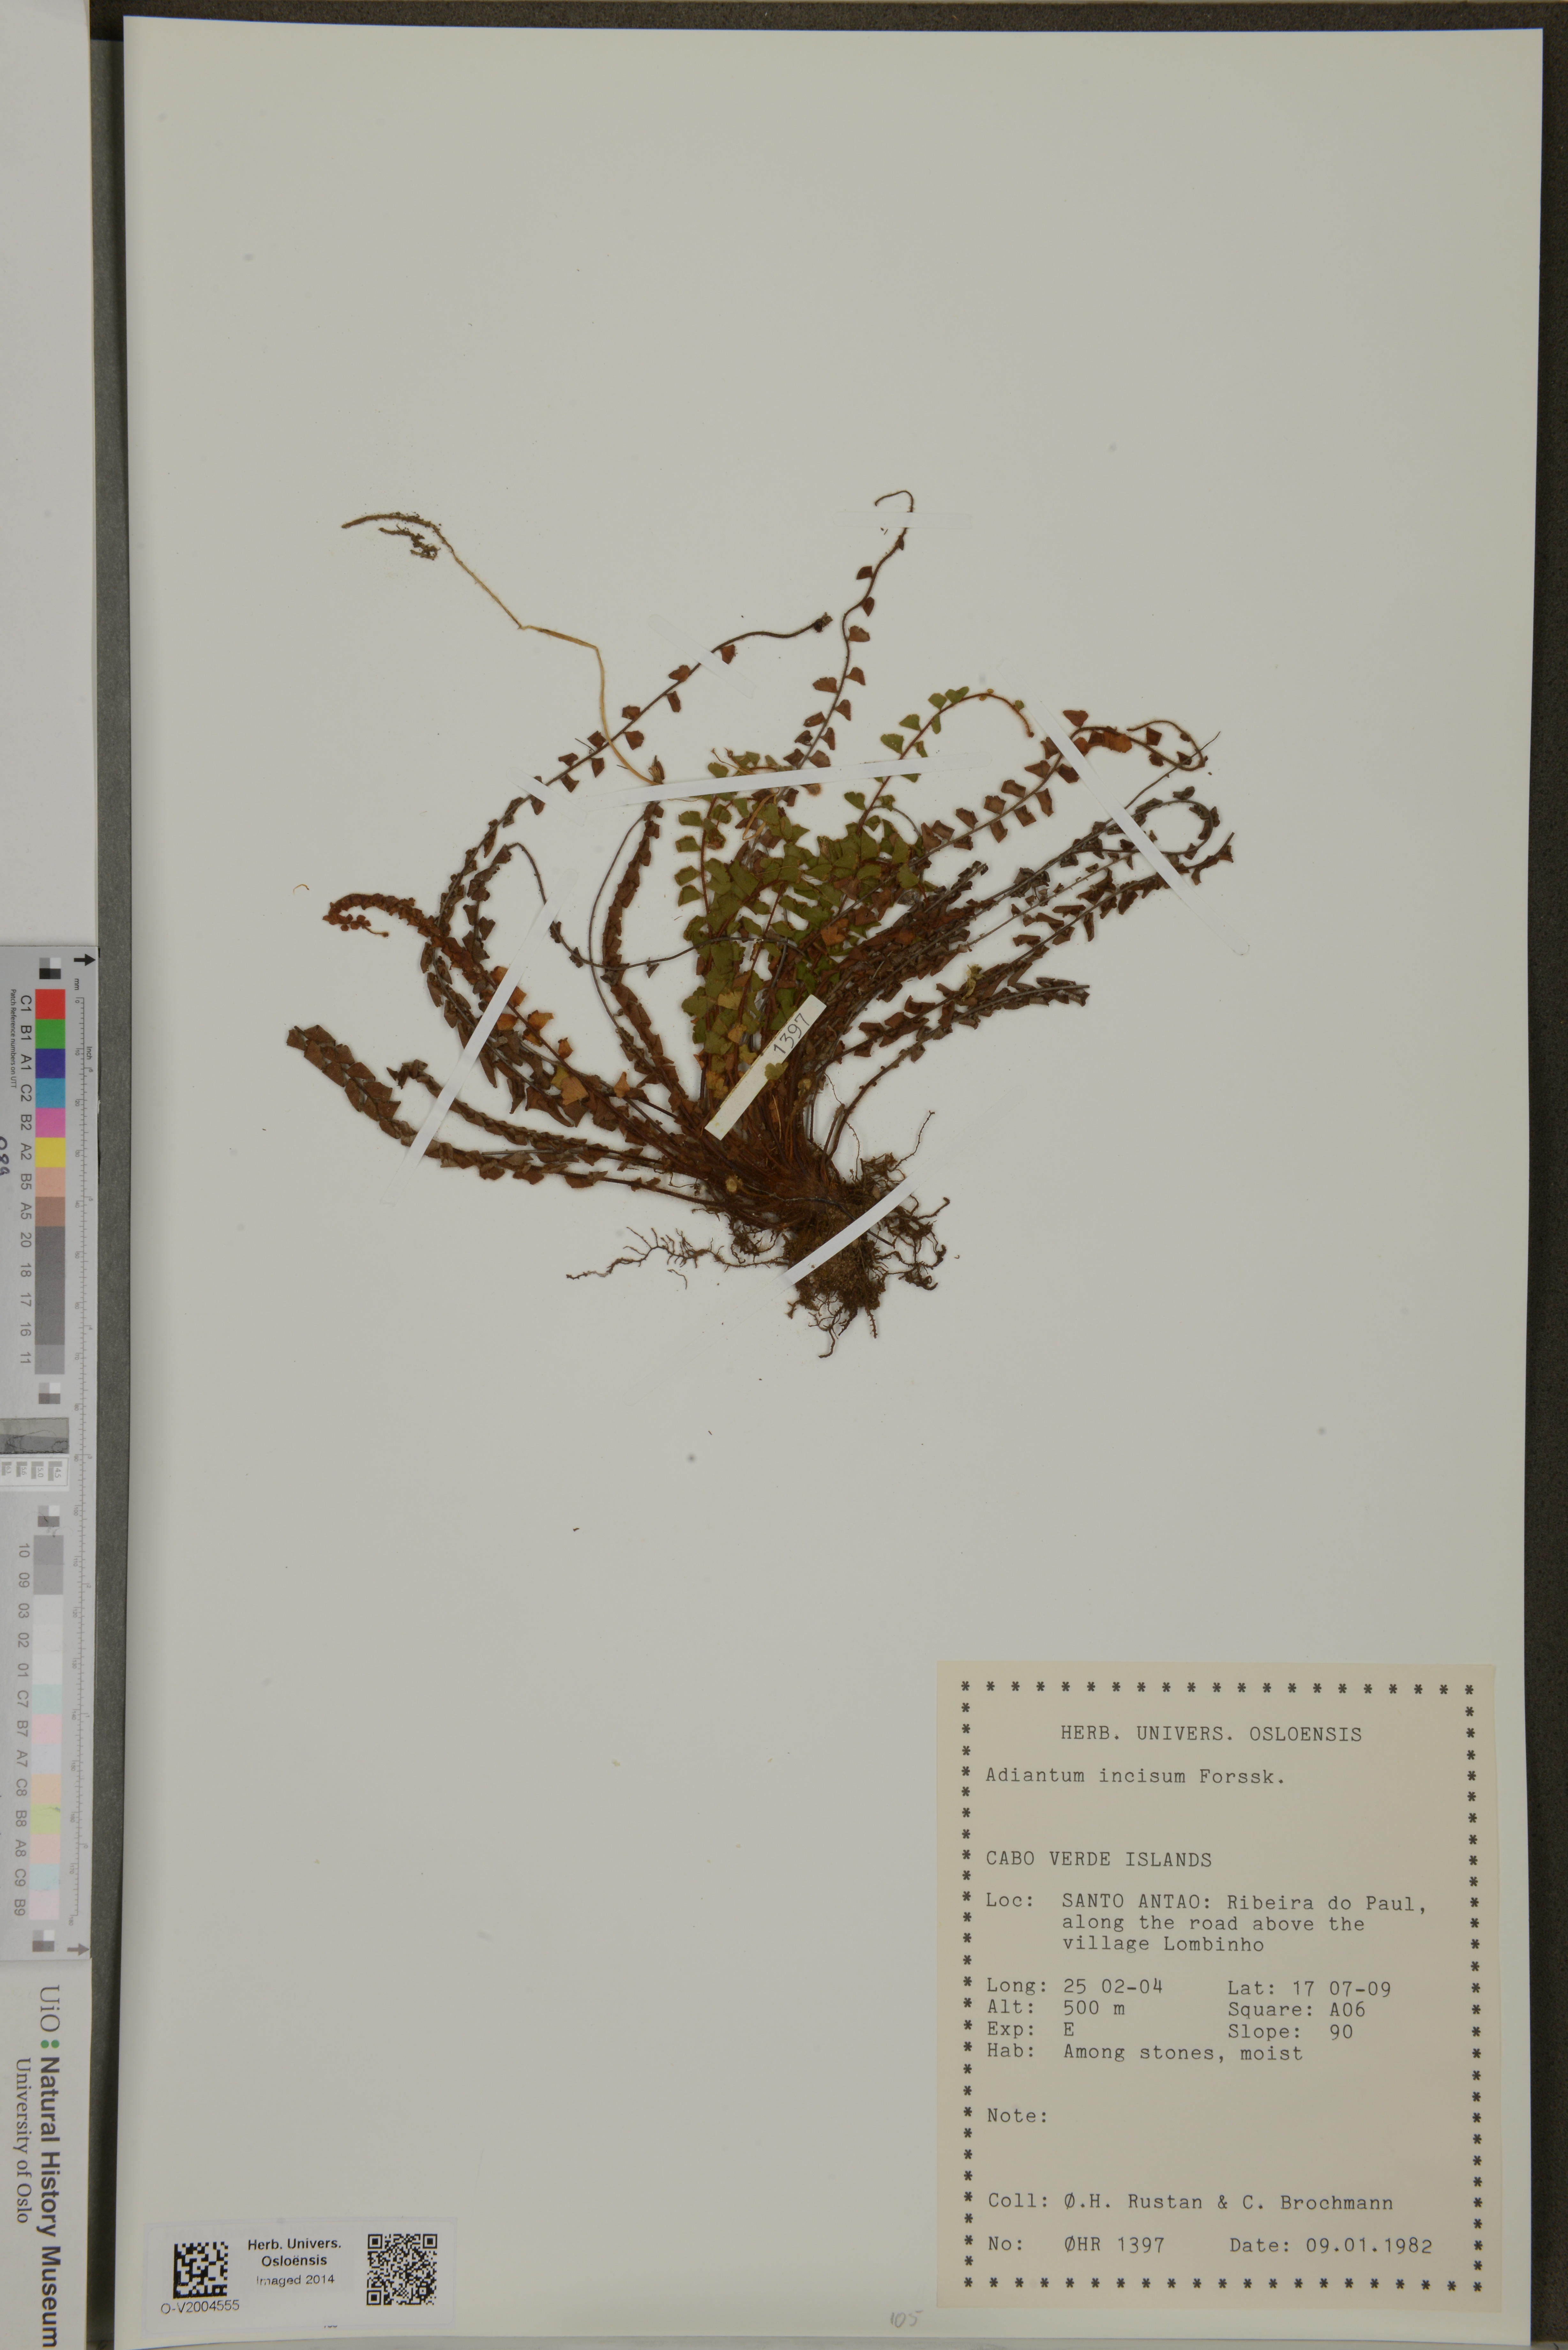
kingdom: Plantae
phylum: Tracheophyta
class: Polypodiopsida
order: Polypodiales
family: Pteridaceae
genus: Adiantum
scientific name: Adiantum incisum
